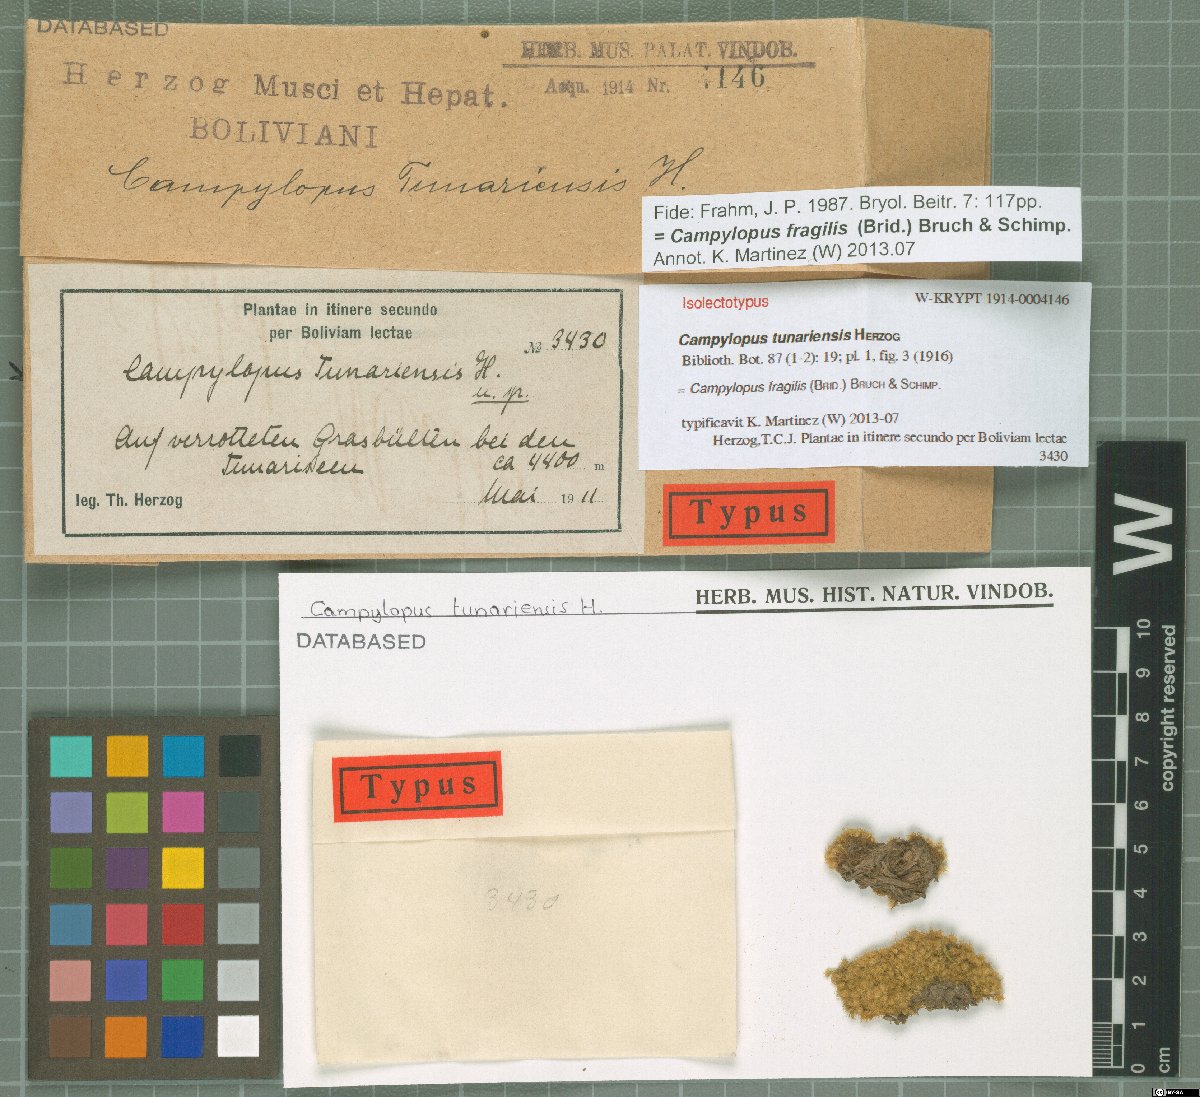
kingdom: Plantae
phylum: Bryophyta
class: Bryopsida
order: Dicranales
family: Leucobryaceae
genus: Campylopus
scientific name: Campylopus fragilis
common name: Brittle swan-neck moss
